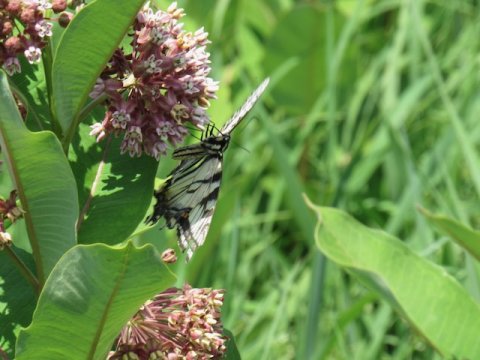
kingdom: Animalia
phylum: Arthropoda
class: Insecta
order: Lepidoptera
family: Papilionidae
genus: Pterourus
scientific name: Pterourus
